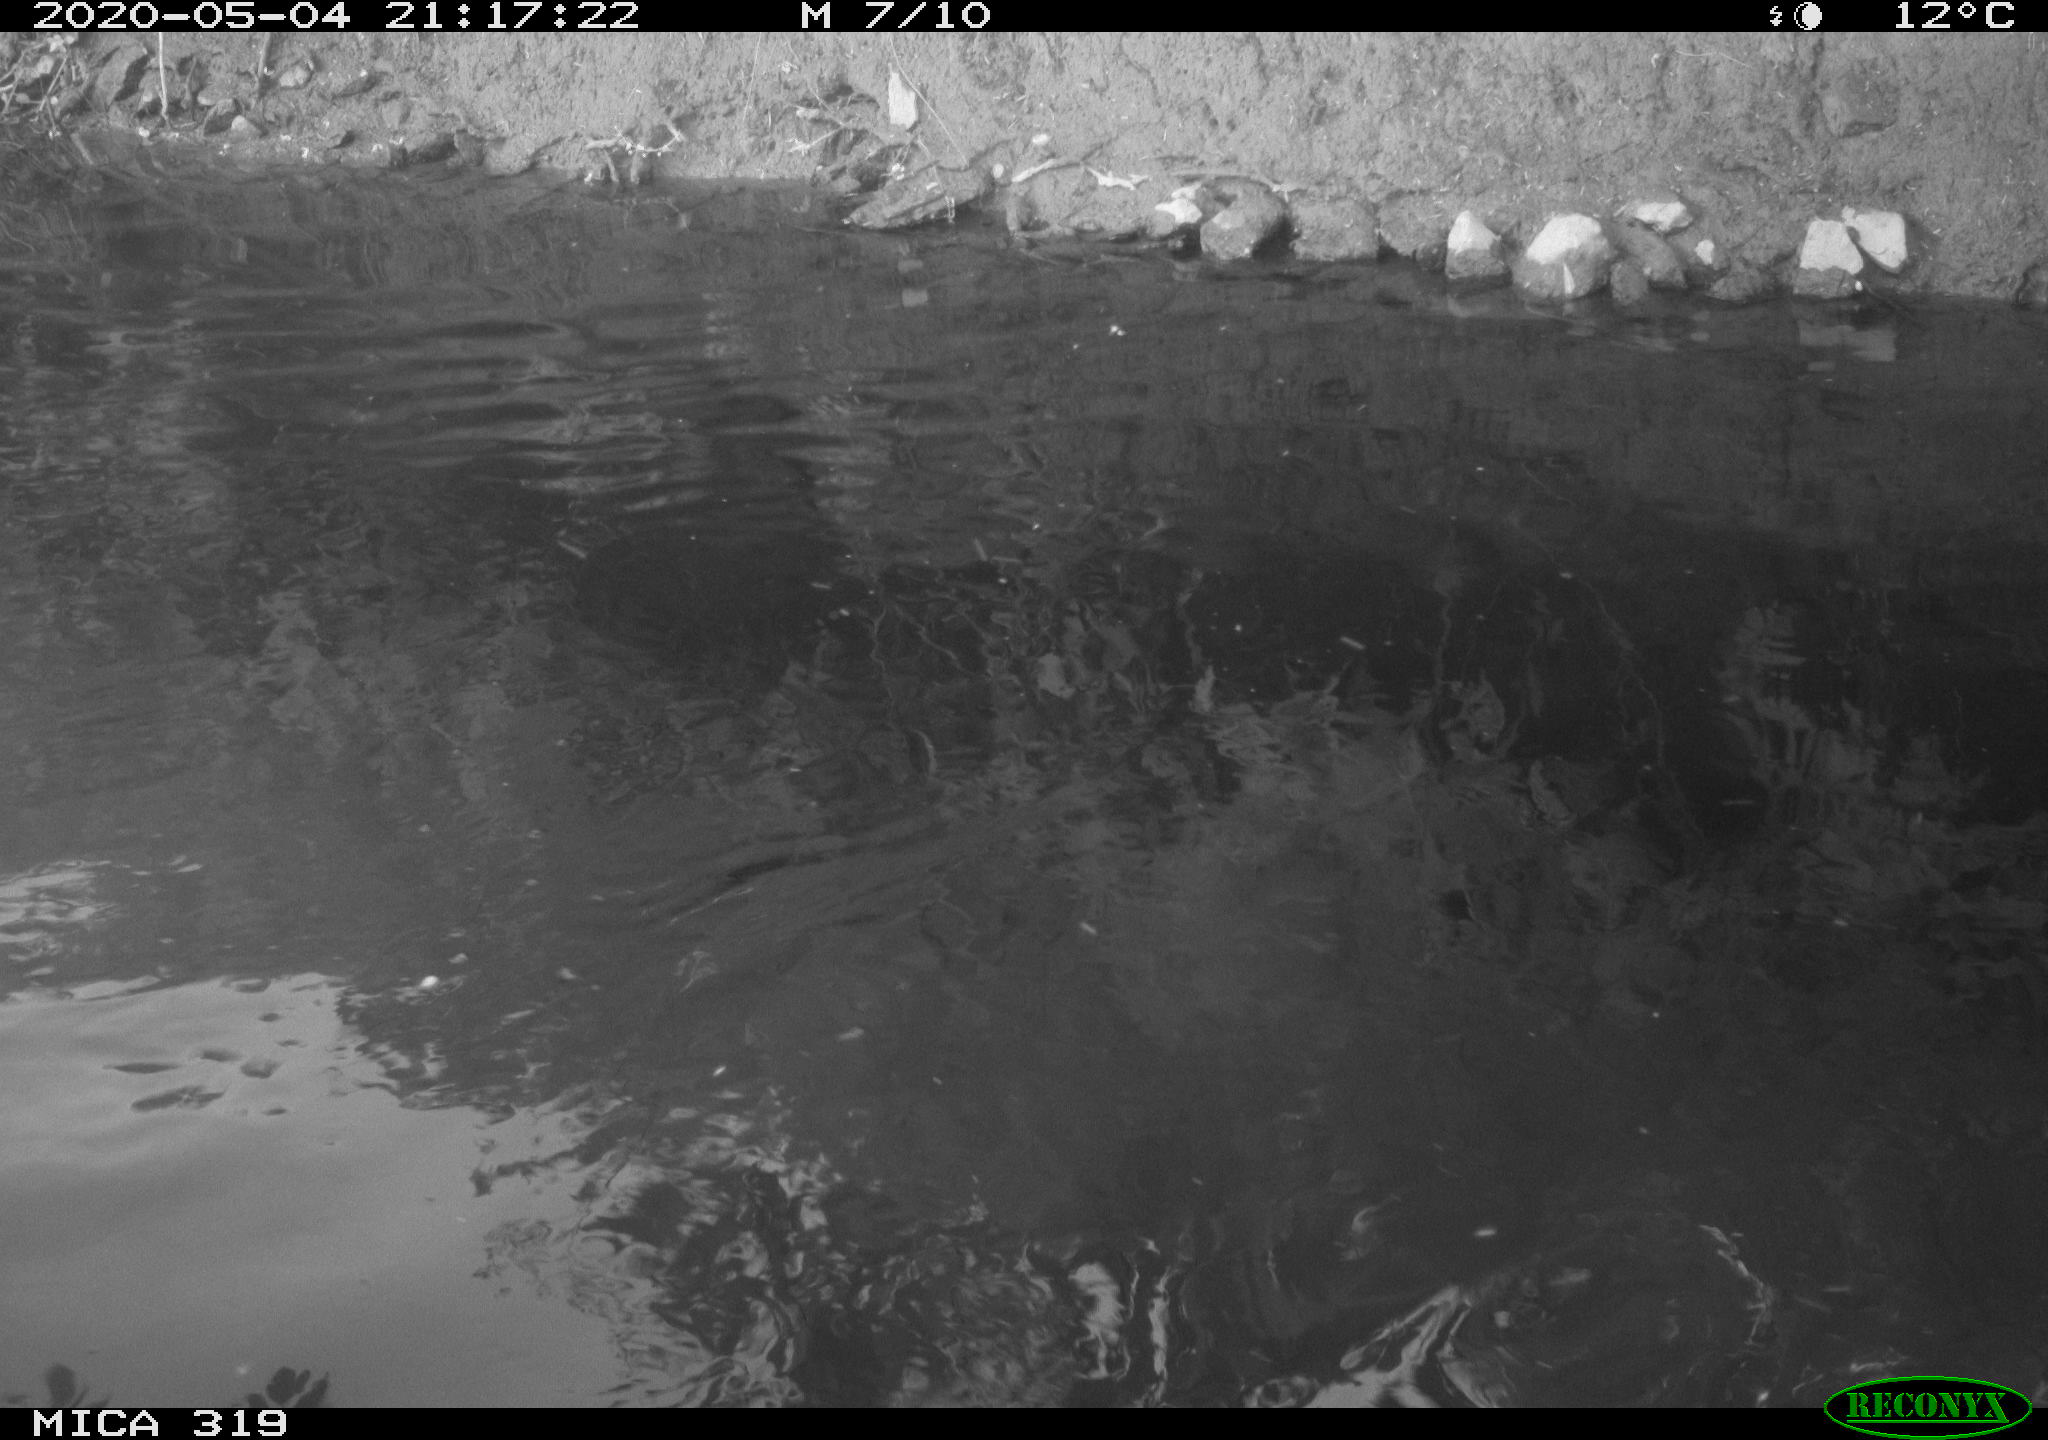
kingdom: Animalia
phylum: Chordata
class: Aves
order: Anseriformes
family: Anatidae
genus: Anas
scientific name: Anas platyrhynchos
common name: Mallard
